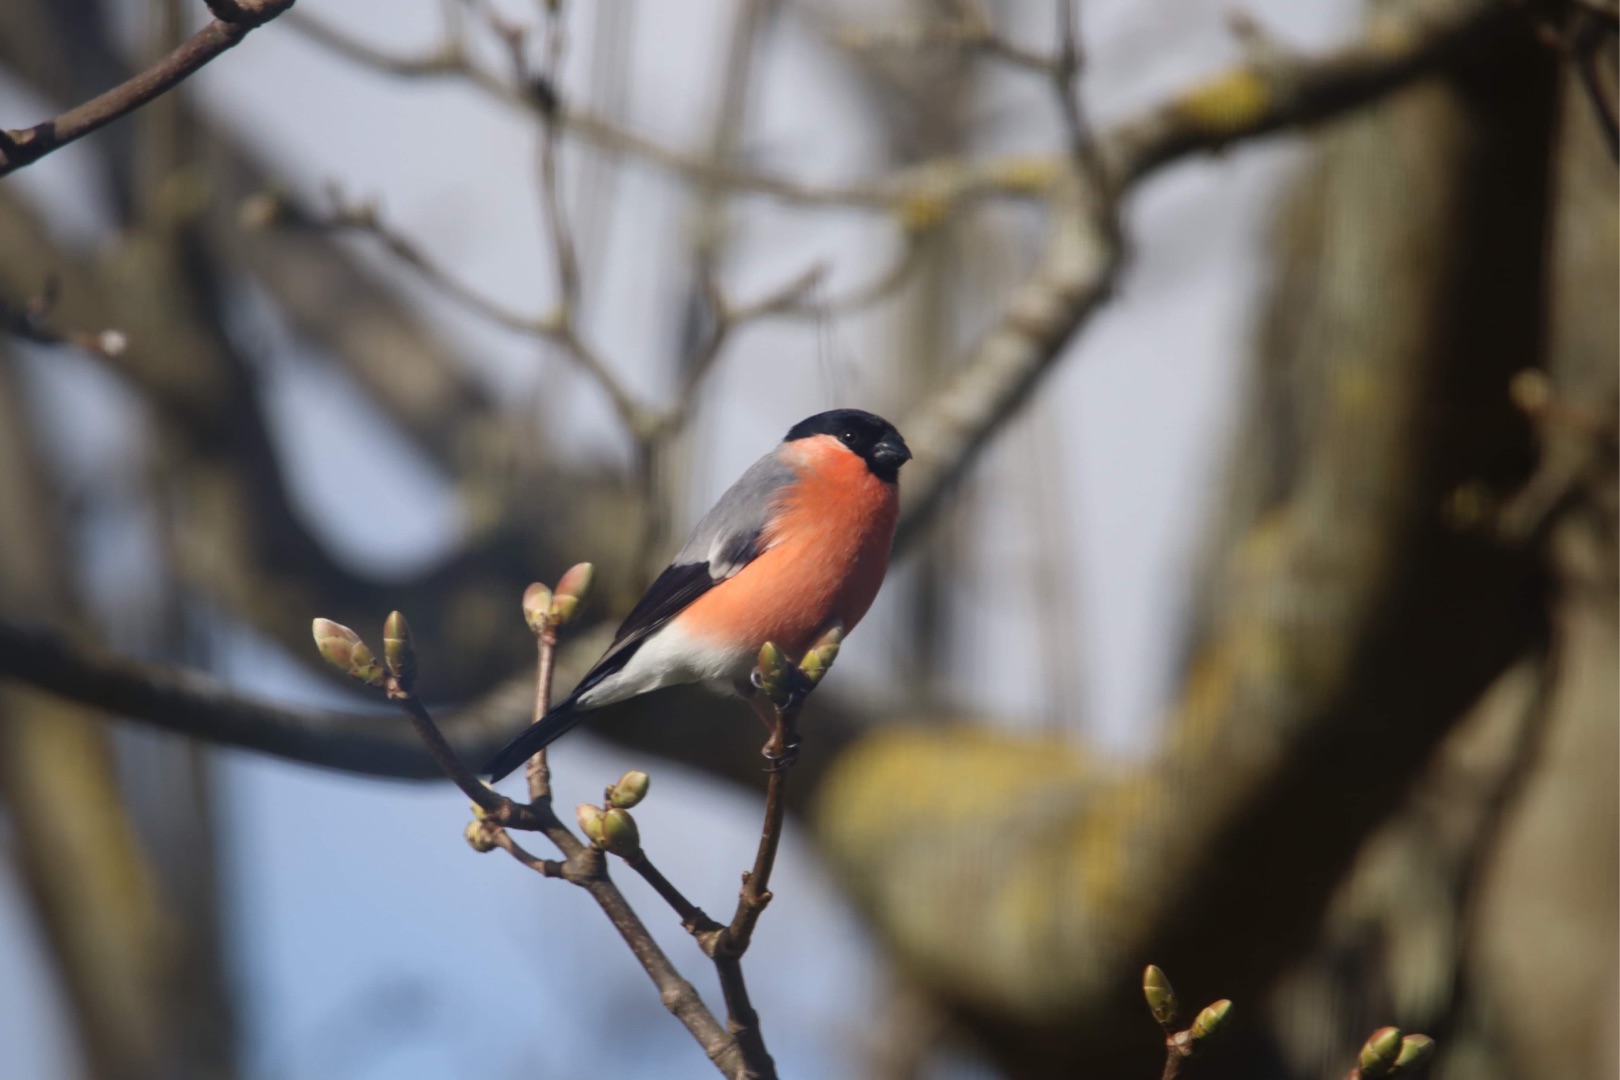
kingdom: Animalia
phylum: Chordata
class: Aves
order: Passeriformes
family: Fringillidae
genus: Pyrrhula
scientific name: Pyrrhula pyrrhula
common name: Dompap
